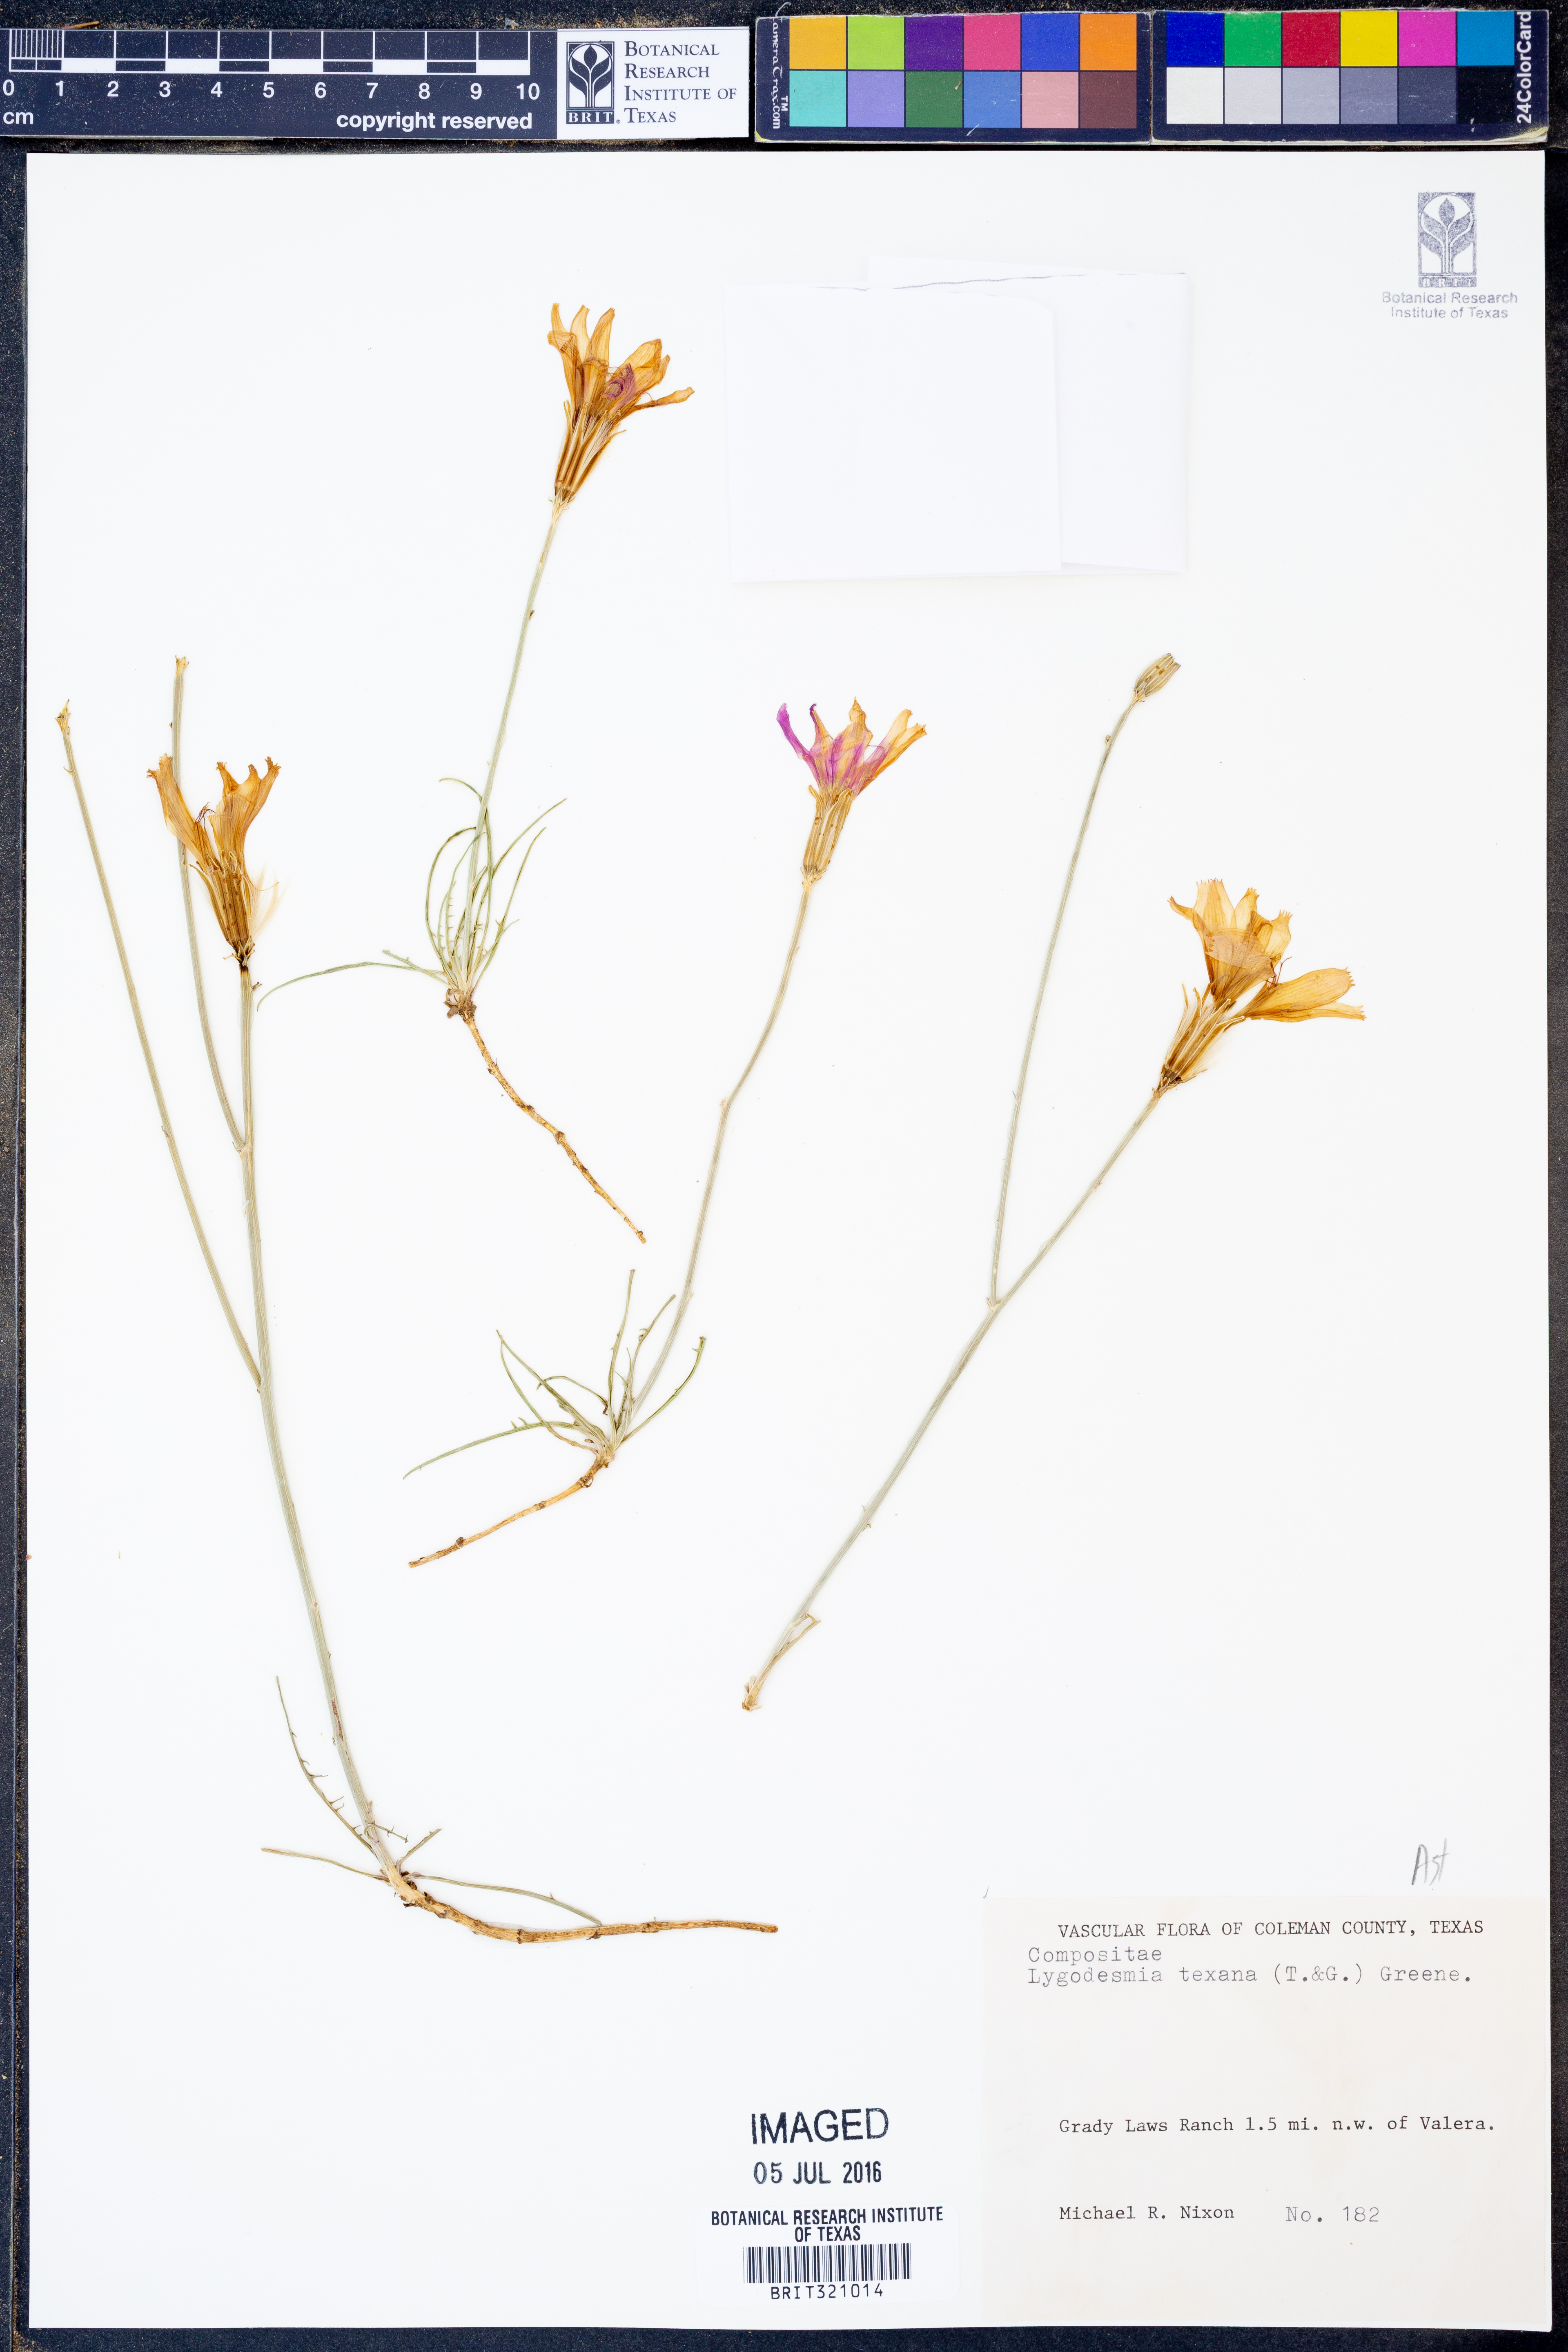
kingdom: Plantae
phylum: Tracheophyta
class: Magnoliopsida
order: Asterales
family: Asteraceae
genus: Lygodesmia
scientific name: Lygodesmia texana
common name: Texas skeleton-plant
